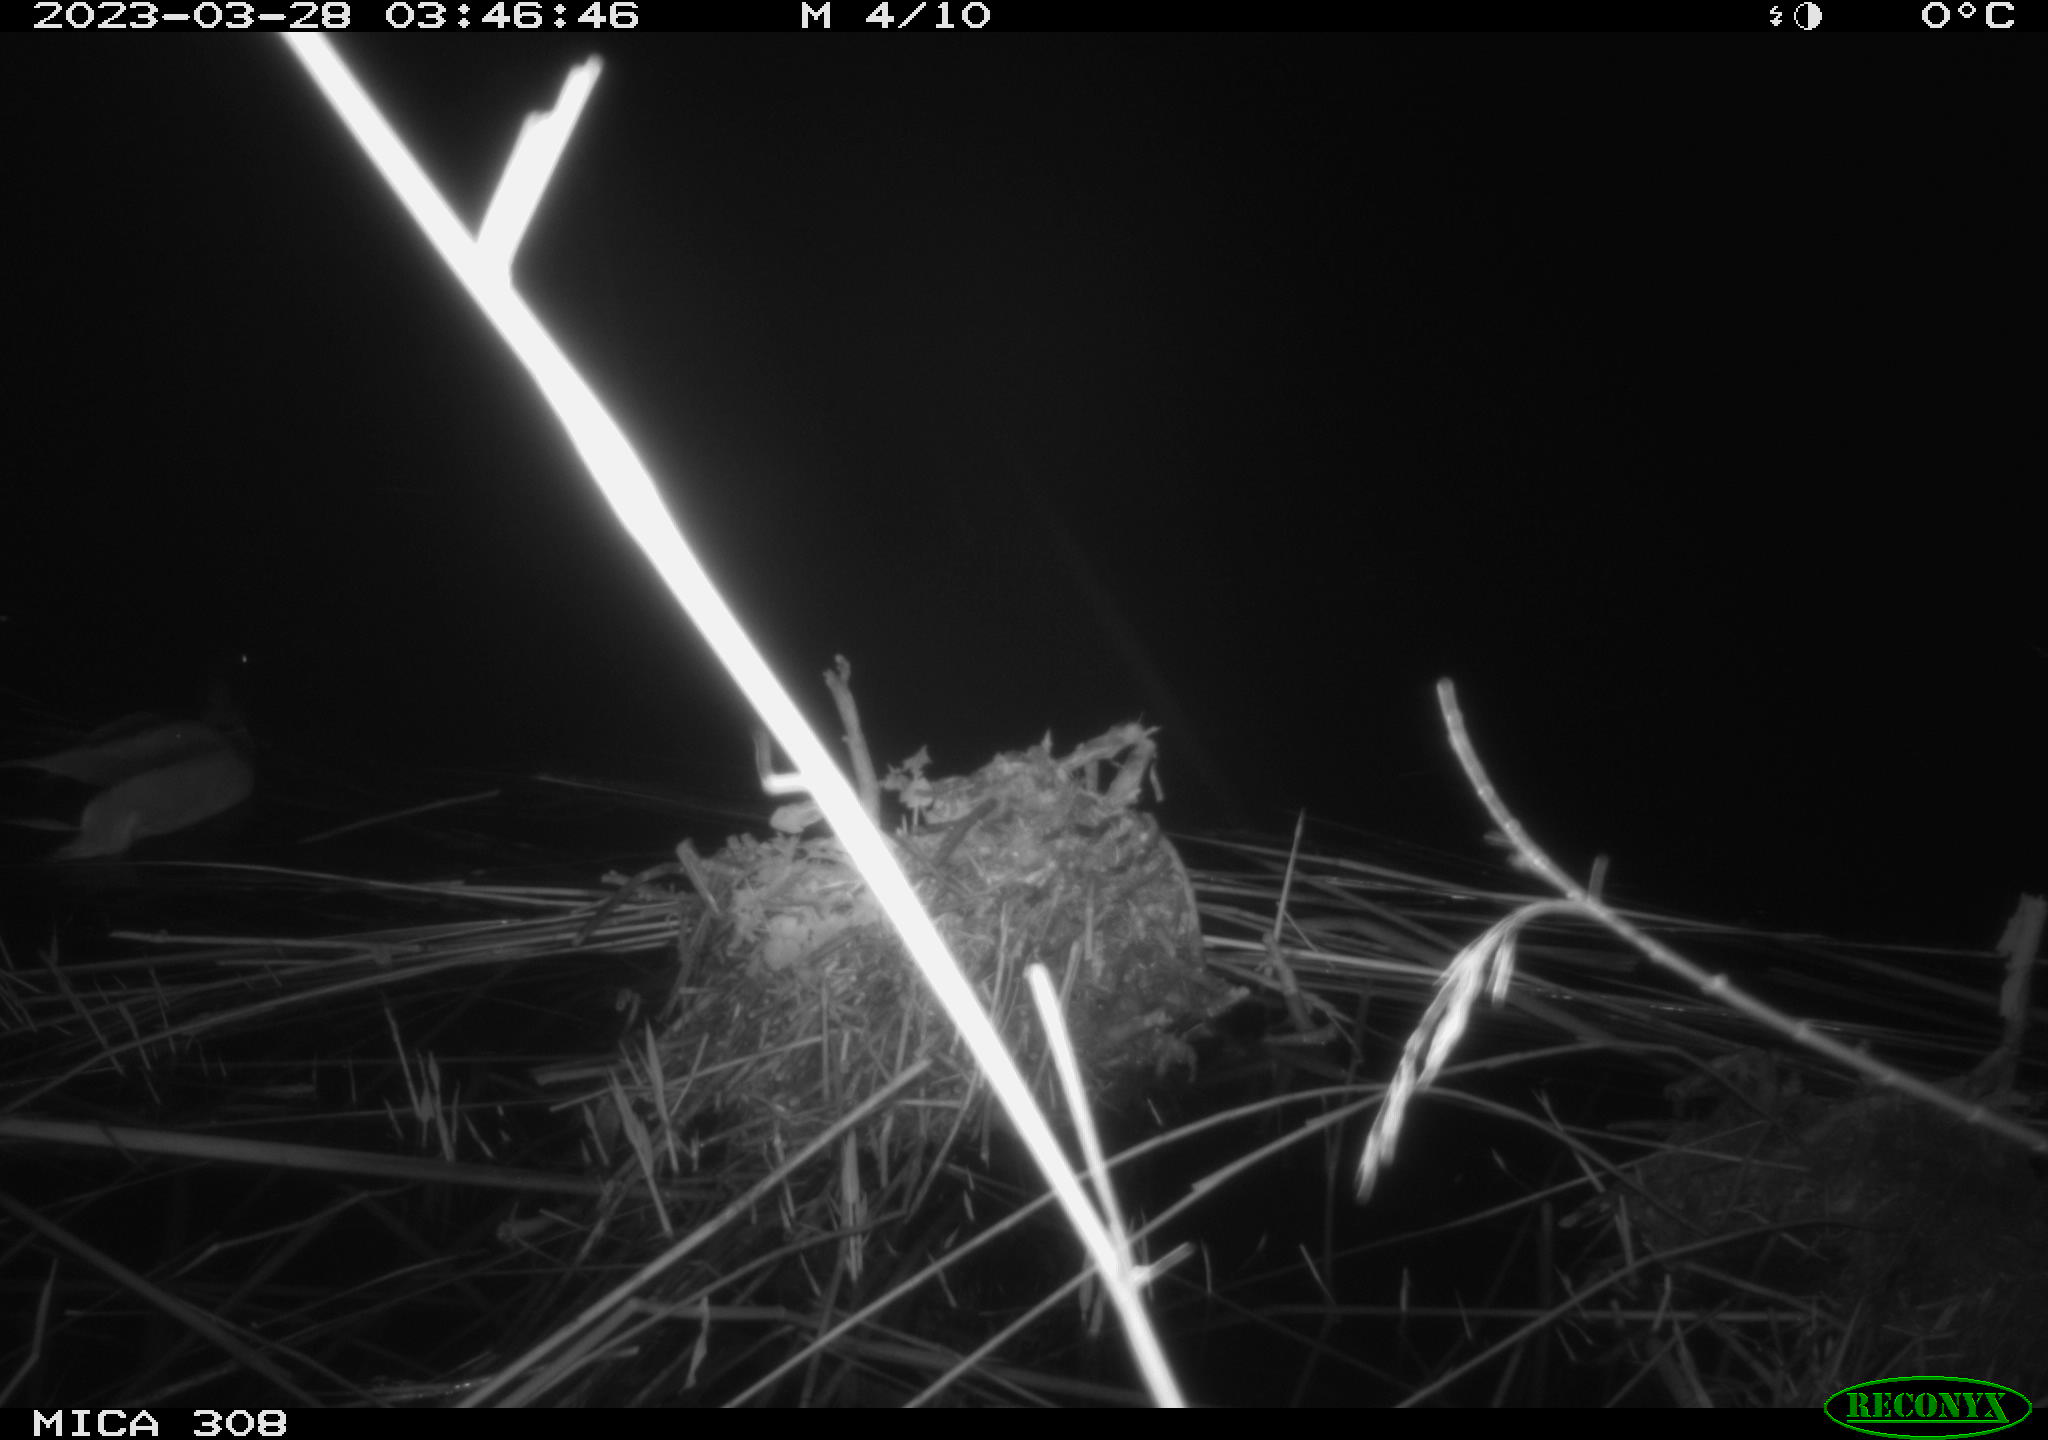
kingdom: Animalia
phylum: Chordata
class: Aves
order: Anseriformes
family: Anatidae
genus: Anas
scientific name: Anas
